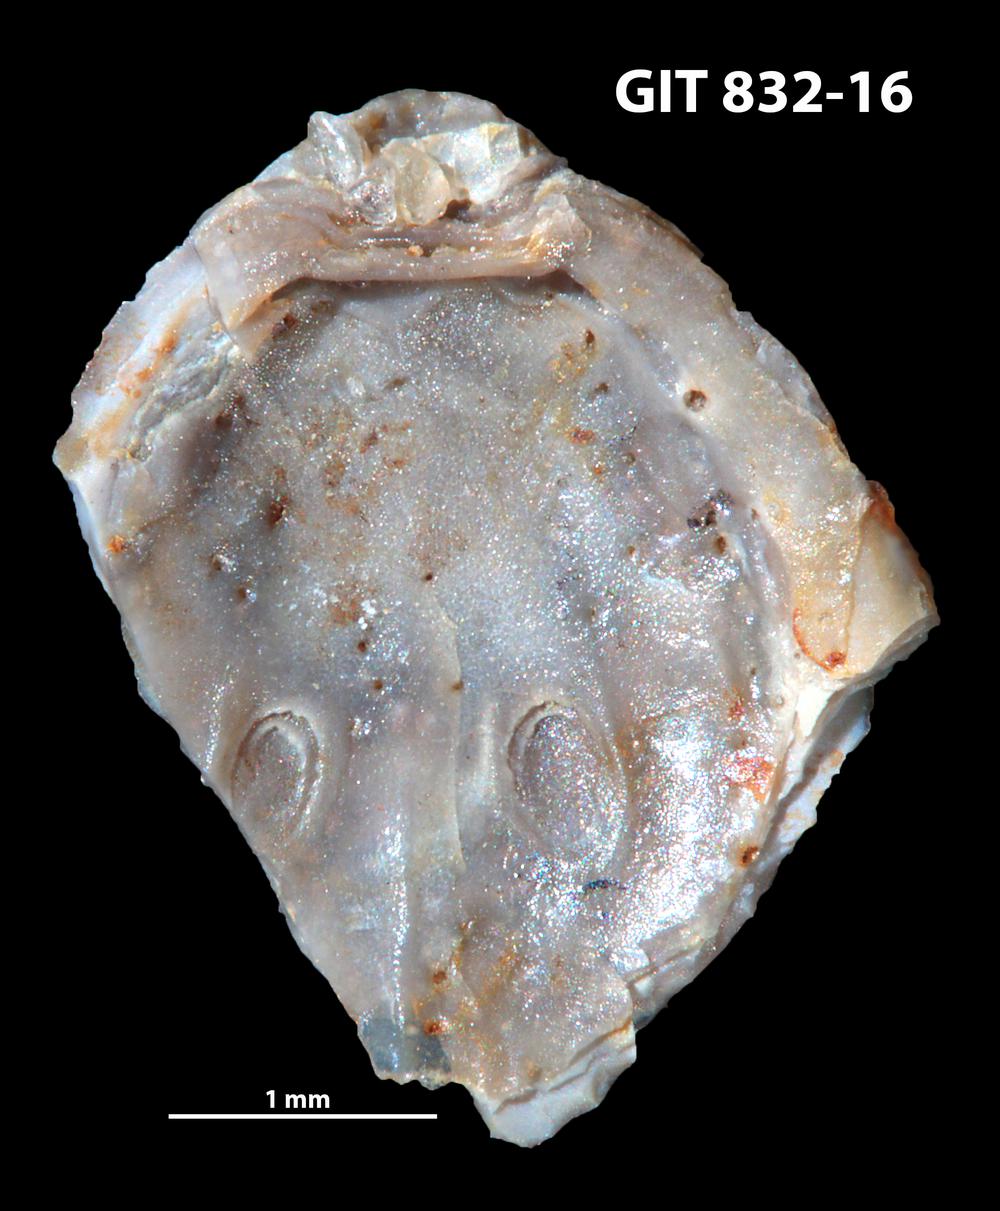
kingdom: Animalia
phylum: Brachiopoda
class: Lingulata
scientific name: Lingulata
